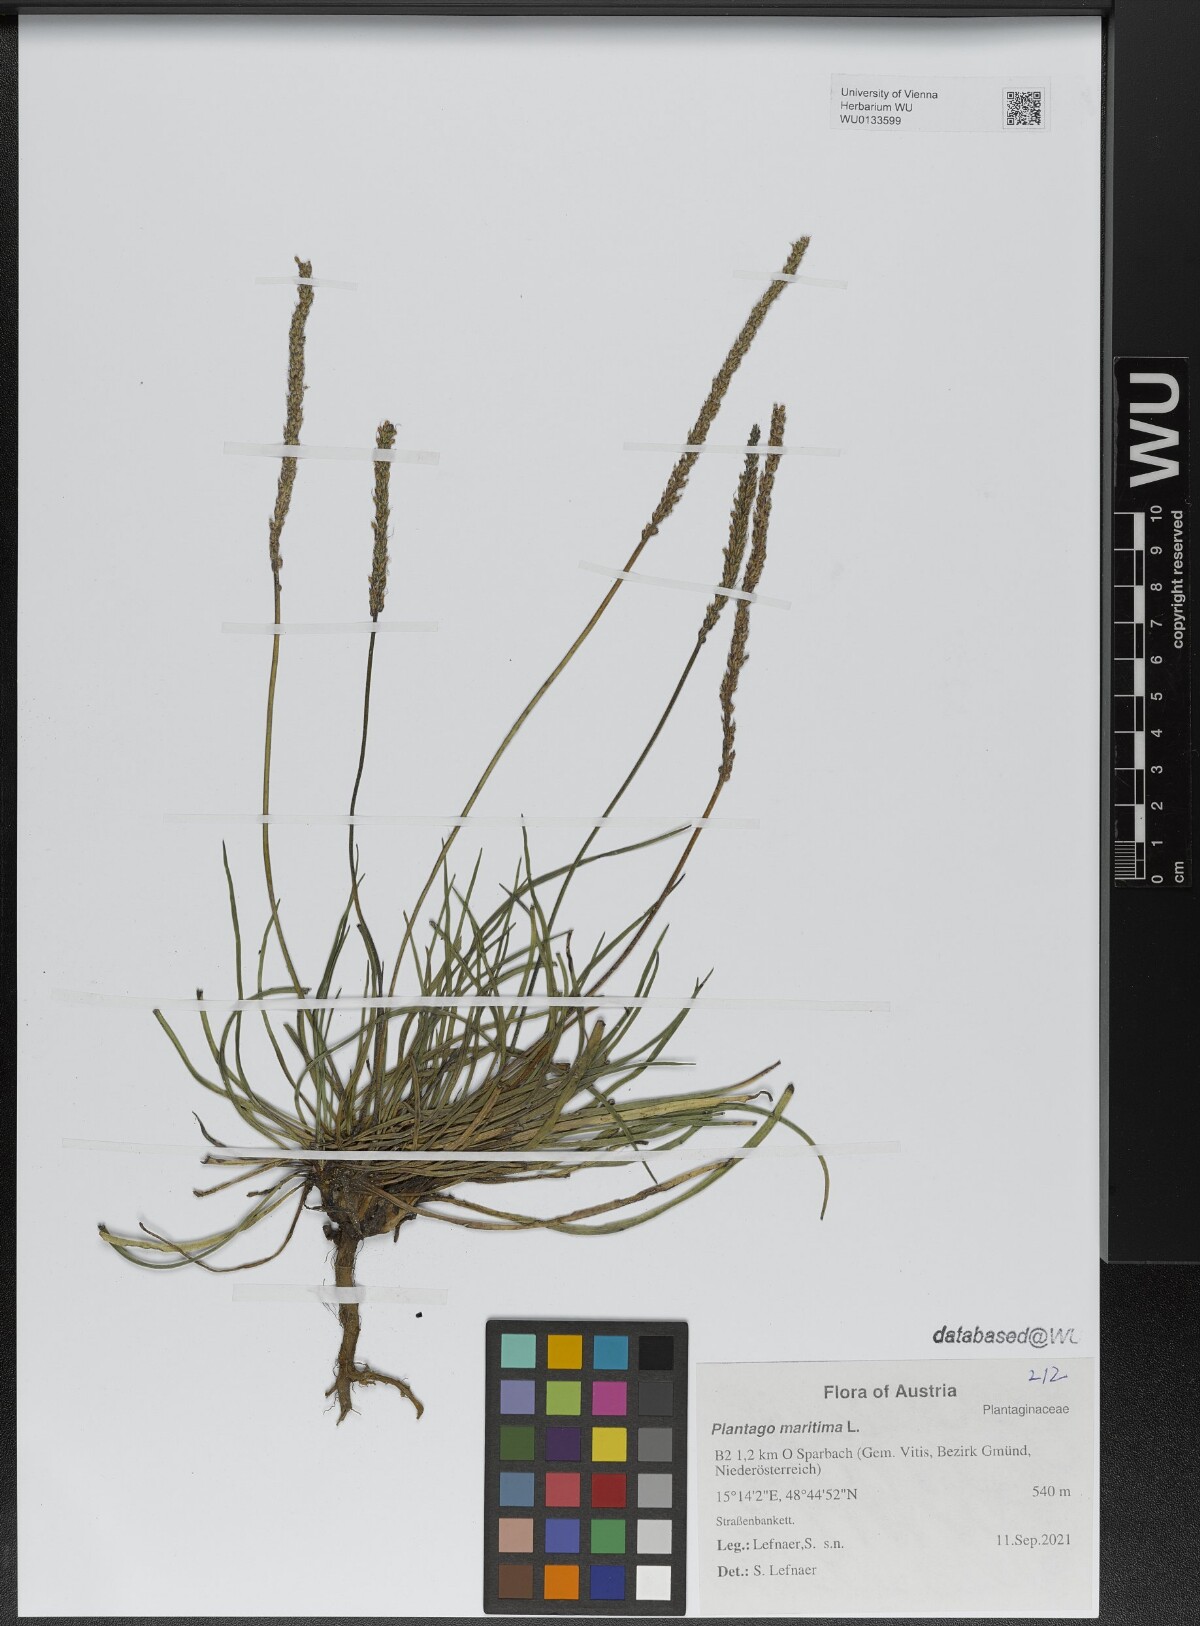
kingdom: Plantae
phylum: Tracheophyta
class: Magnoliopsida
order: Lamiales
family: Plantaginaceae
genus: Plantago
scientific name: Plantago maritima
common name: Sea plantain
